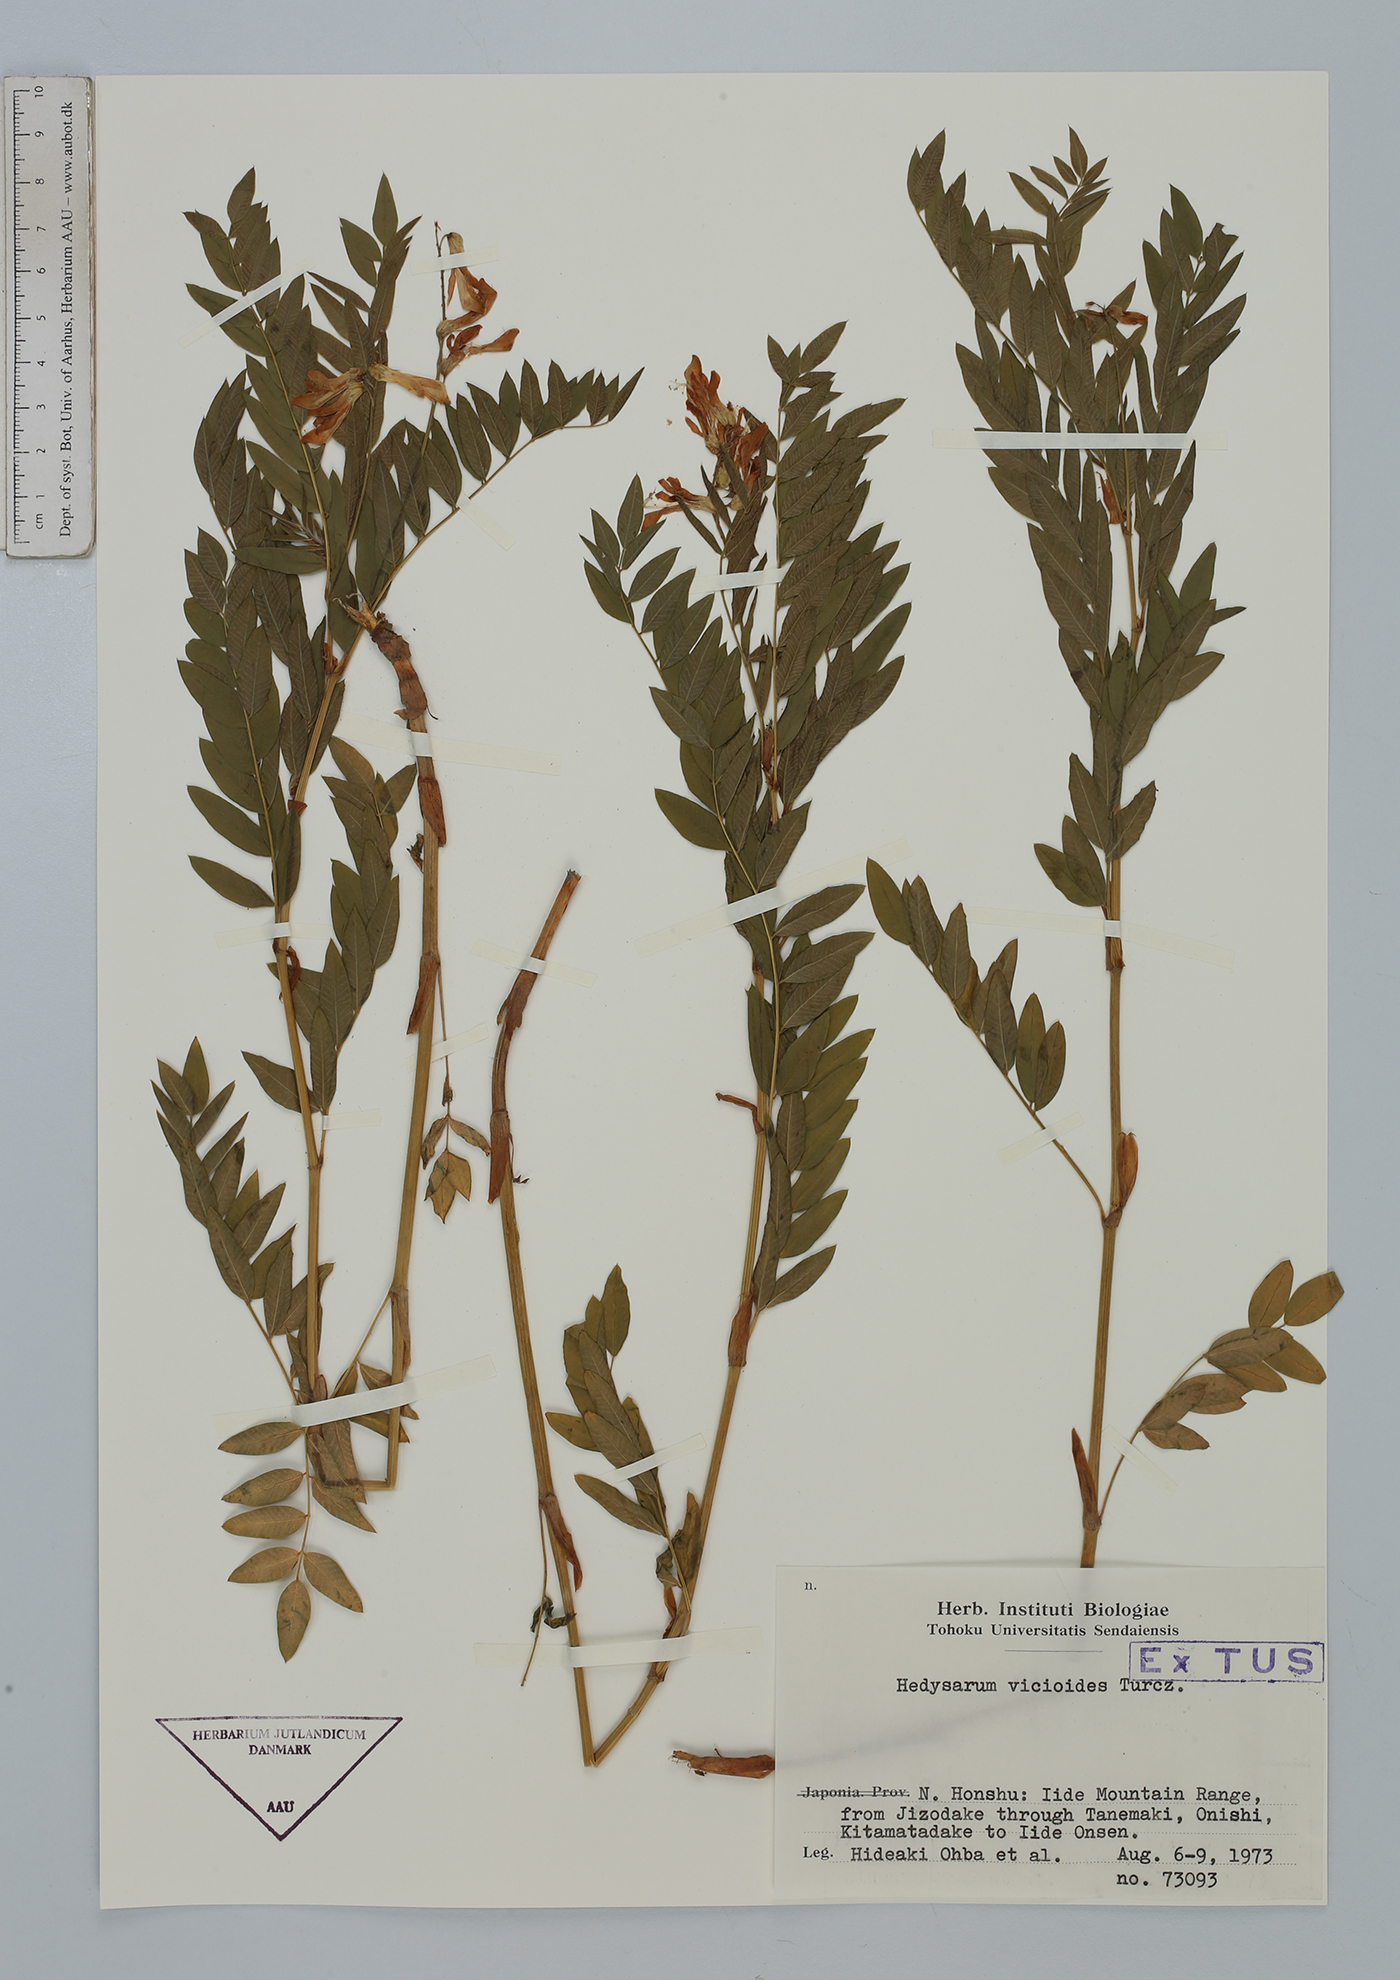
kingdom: Plantae
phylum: Tracheophyta
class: Magnoliopsida
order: Fabales
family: Fabaceae
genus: Hedysarum
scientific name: Hedysarum vicioides
